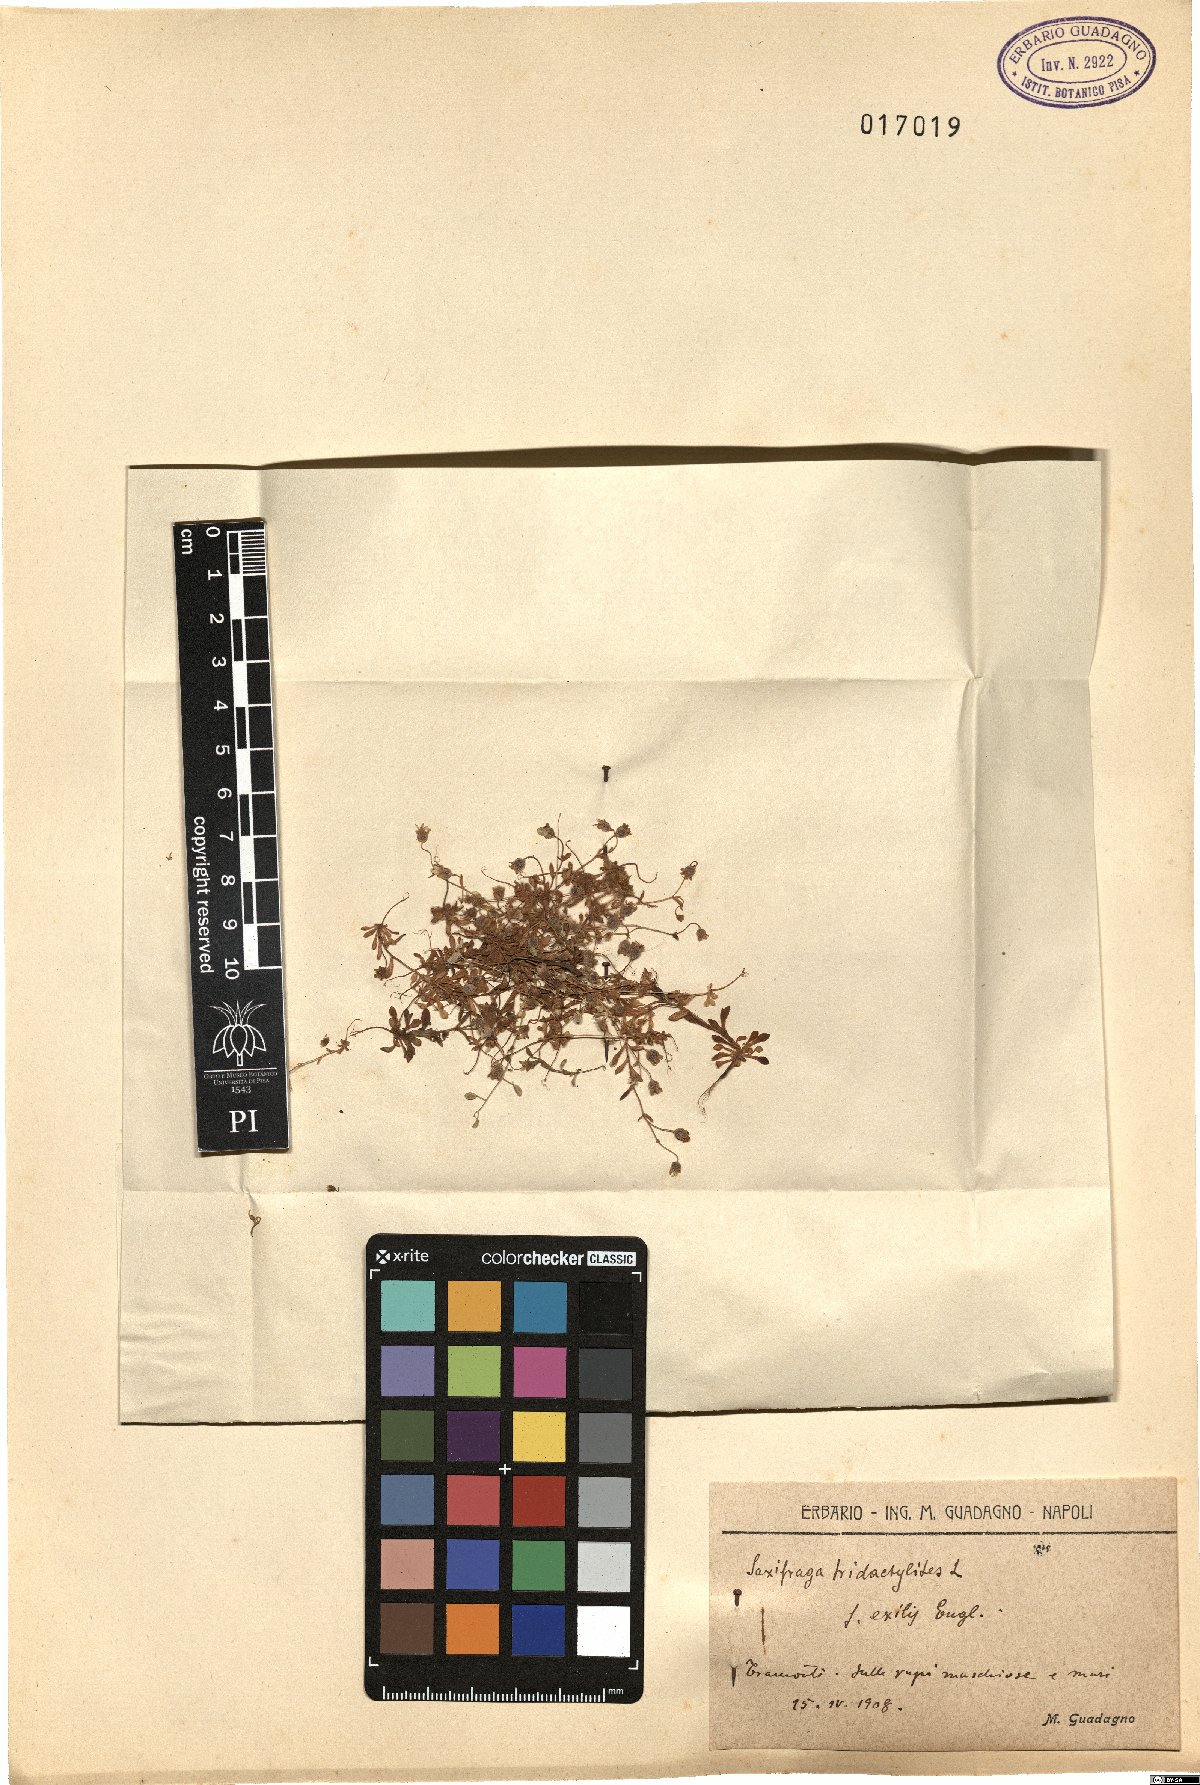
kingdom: Plantae
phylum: Tracheophyta
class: Magnoliopsida
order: Saxifragales
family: Saxifragaceae
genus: Saxifraga
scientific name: Saxifraga tridactylites
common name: Rue-leaved saxifrage
